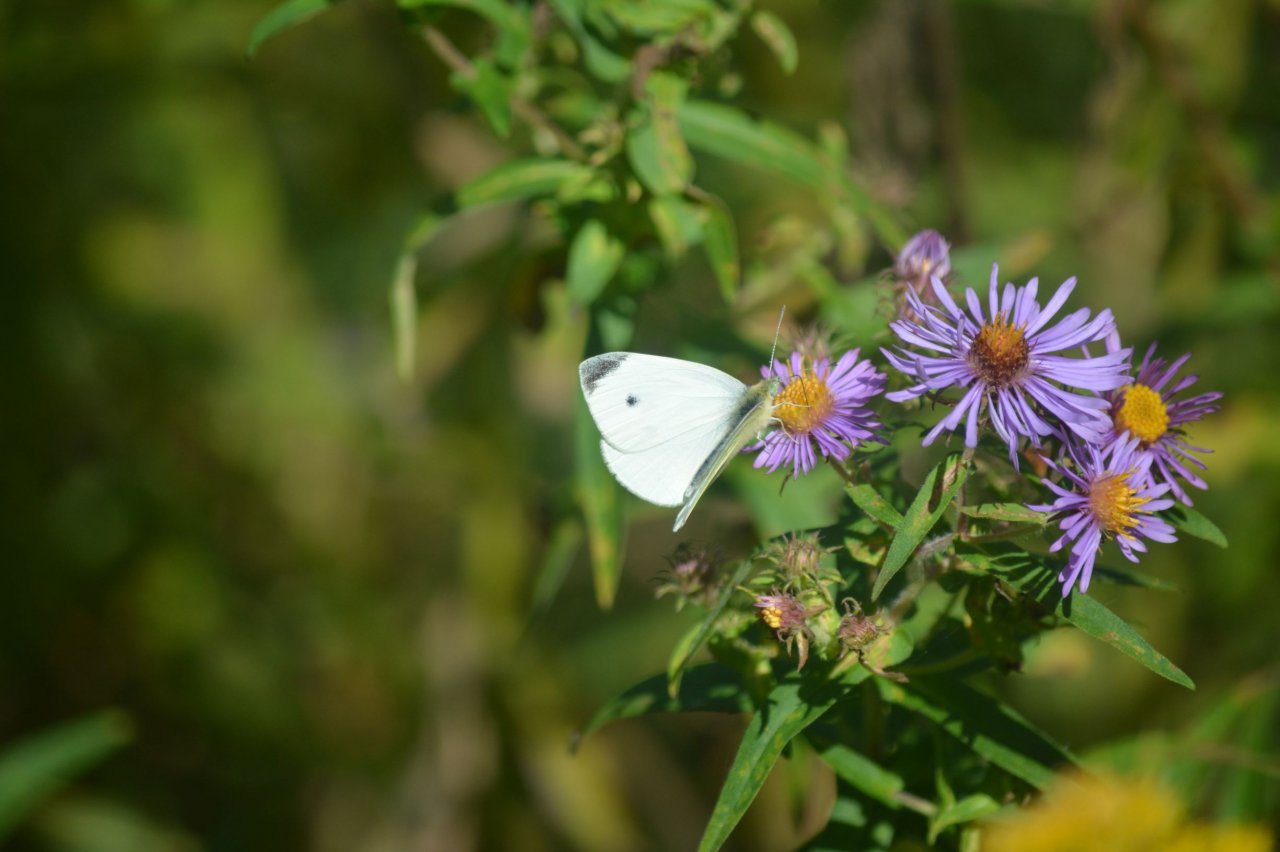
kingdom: Animalia
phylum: Arthropoda
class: Insecta
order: Lepidoptera
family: Pieridae
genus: Pieris
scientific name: Pieris rapae
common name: Cabbage White
